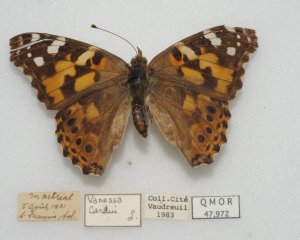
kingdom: Animalia
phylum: Arthropoda
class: Insecta
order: Lepidoptera
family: Nymphalidae
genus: Vanessa
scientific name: Vanessa cardui
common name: Painted Lady
